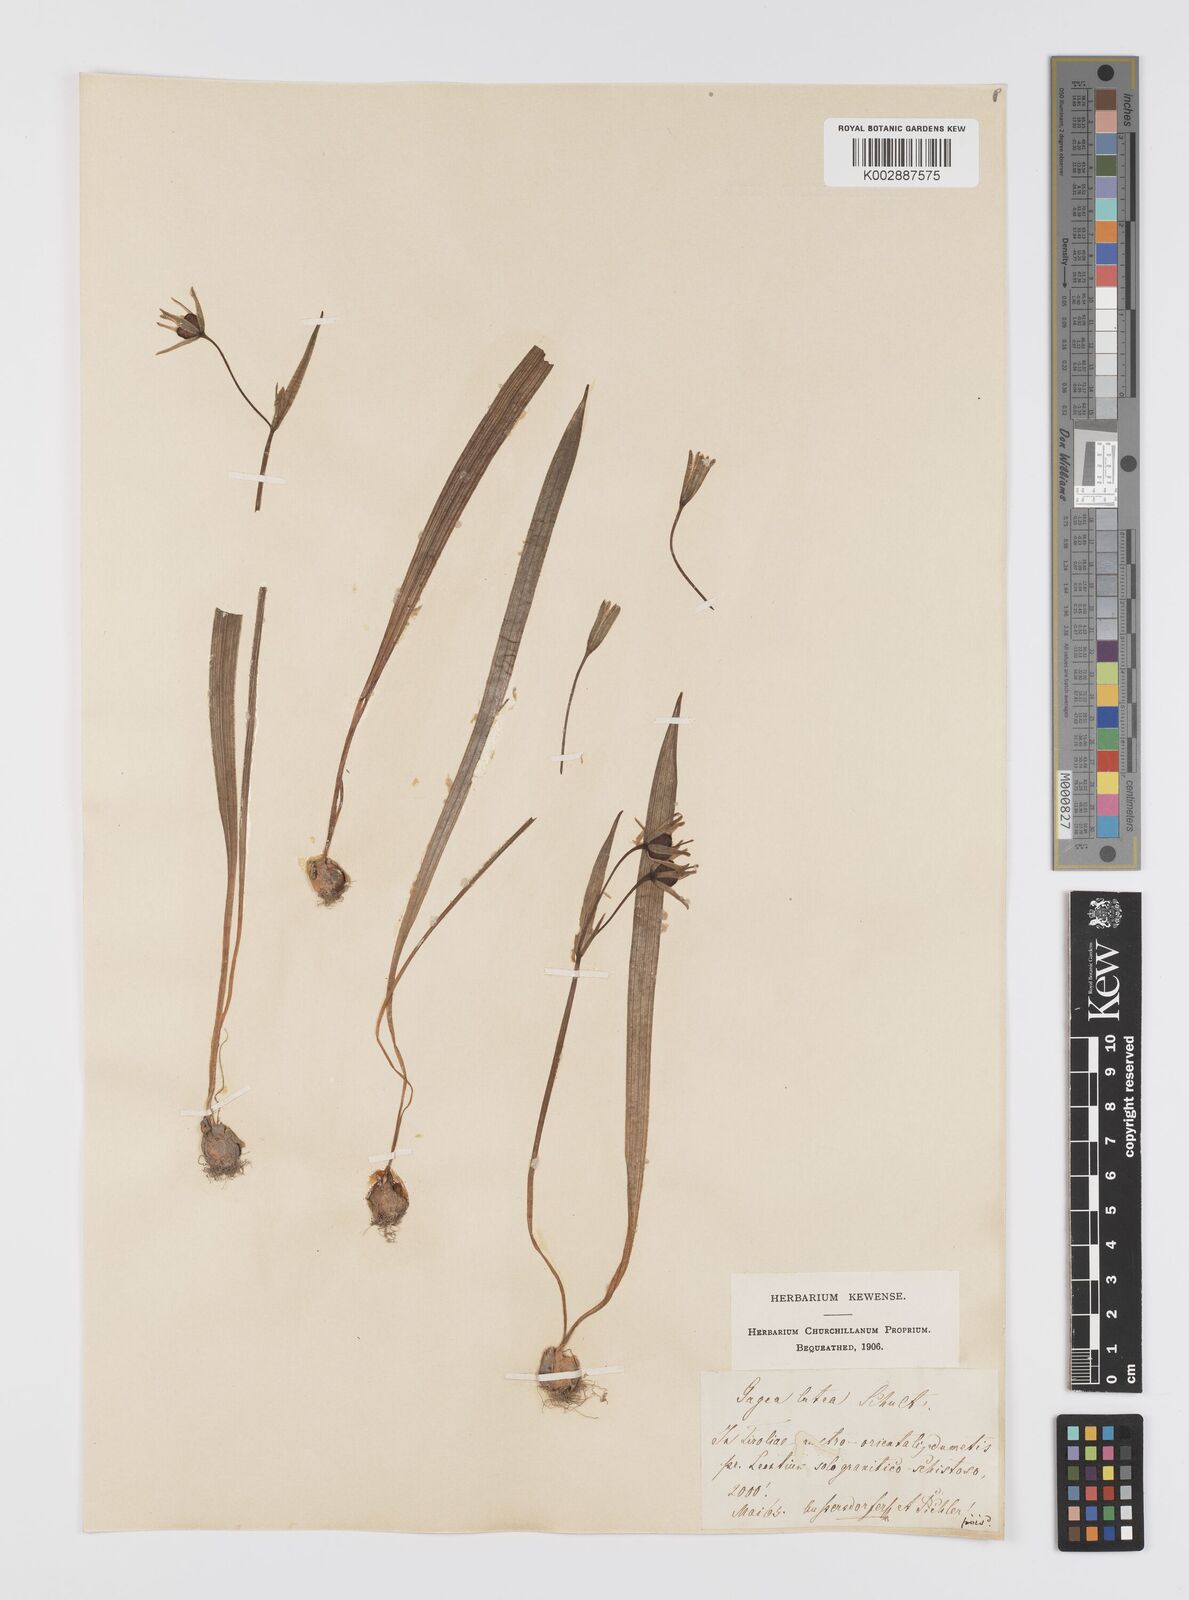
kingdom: Plantae
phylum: Tracheophyta
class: Liliopsida
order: Liliales
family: Liliaceae
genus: Gagea
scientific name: Gagea lutea
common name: Yellow star-of-bethlehem
